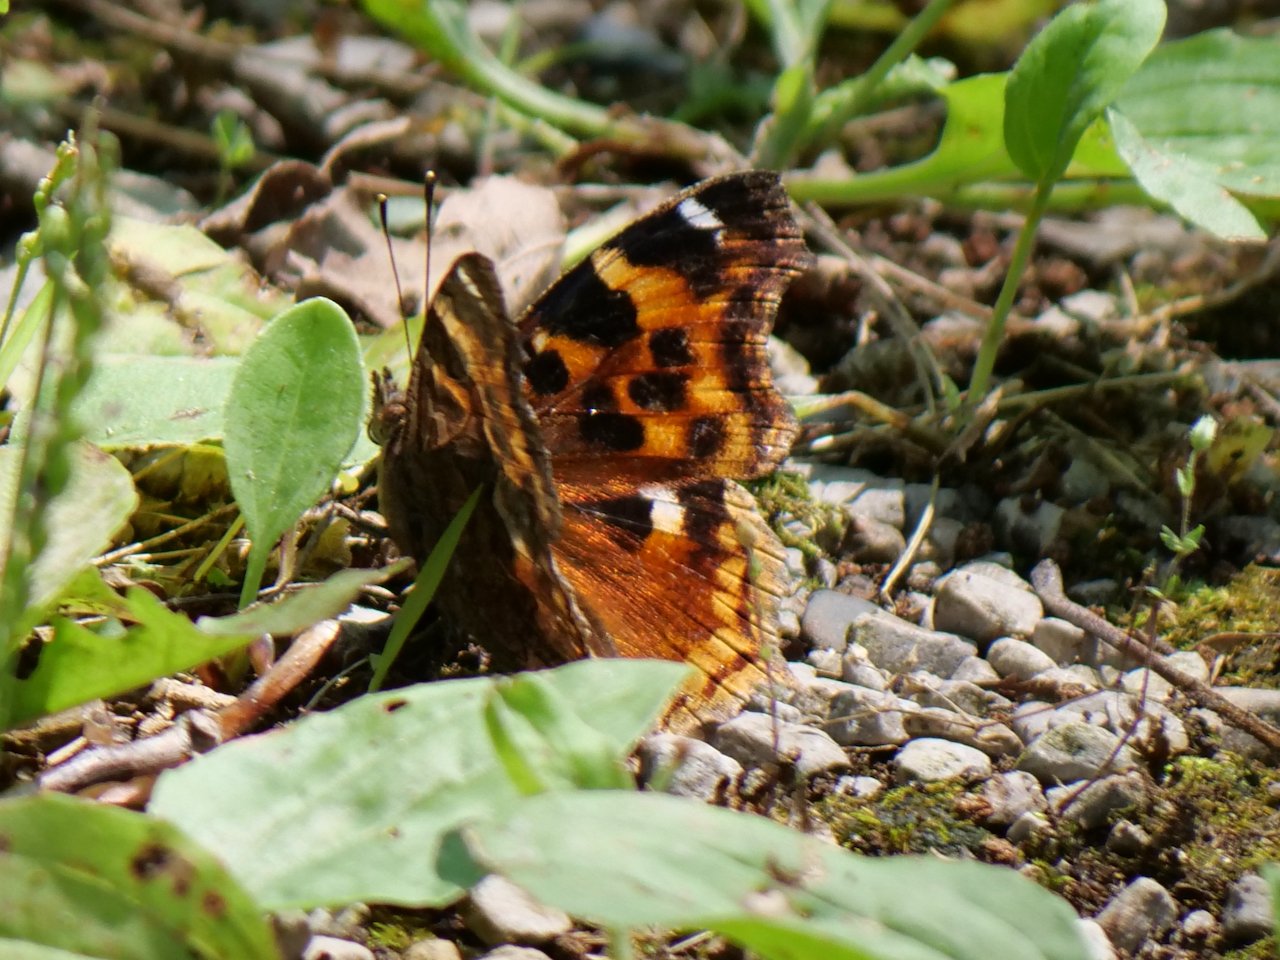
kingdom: Animalia
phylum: Arthropoda
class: Insecta
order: Lepidoptera
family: Nymphalidae
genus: Polygonia
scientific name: Polygonia vaualbum
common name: Compton Tortoiseshell
